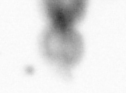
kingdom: Animalia
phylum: Arthropoda
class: Copepoda
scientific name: Copepoda
